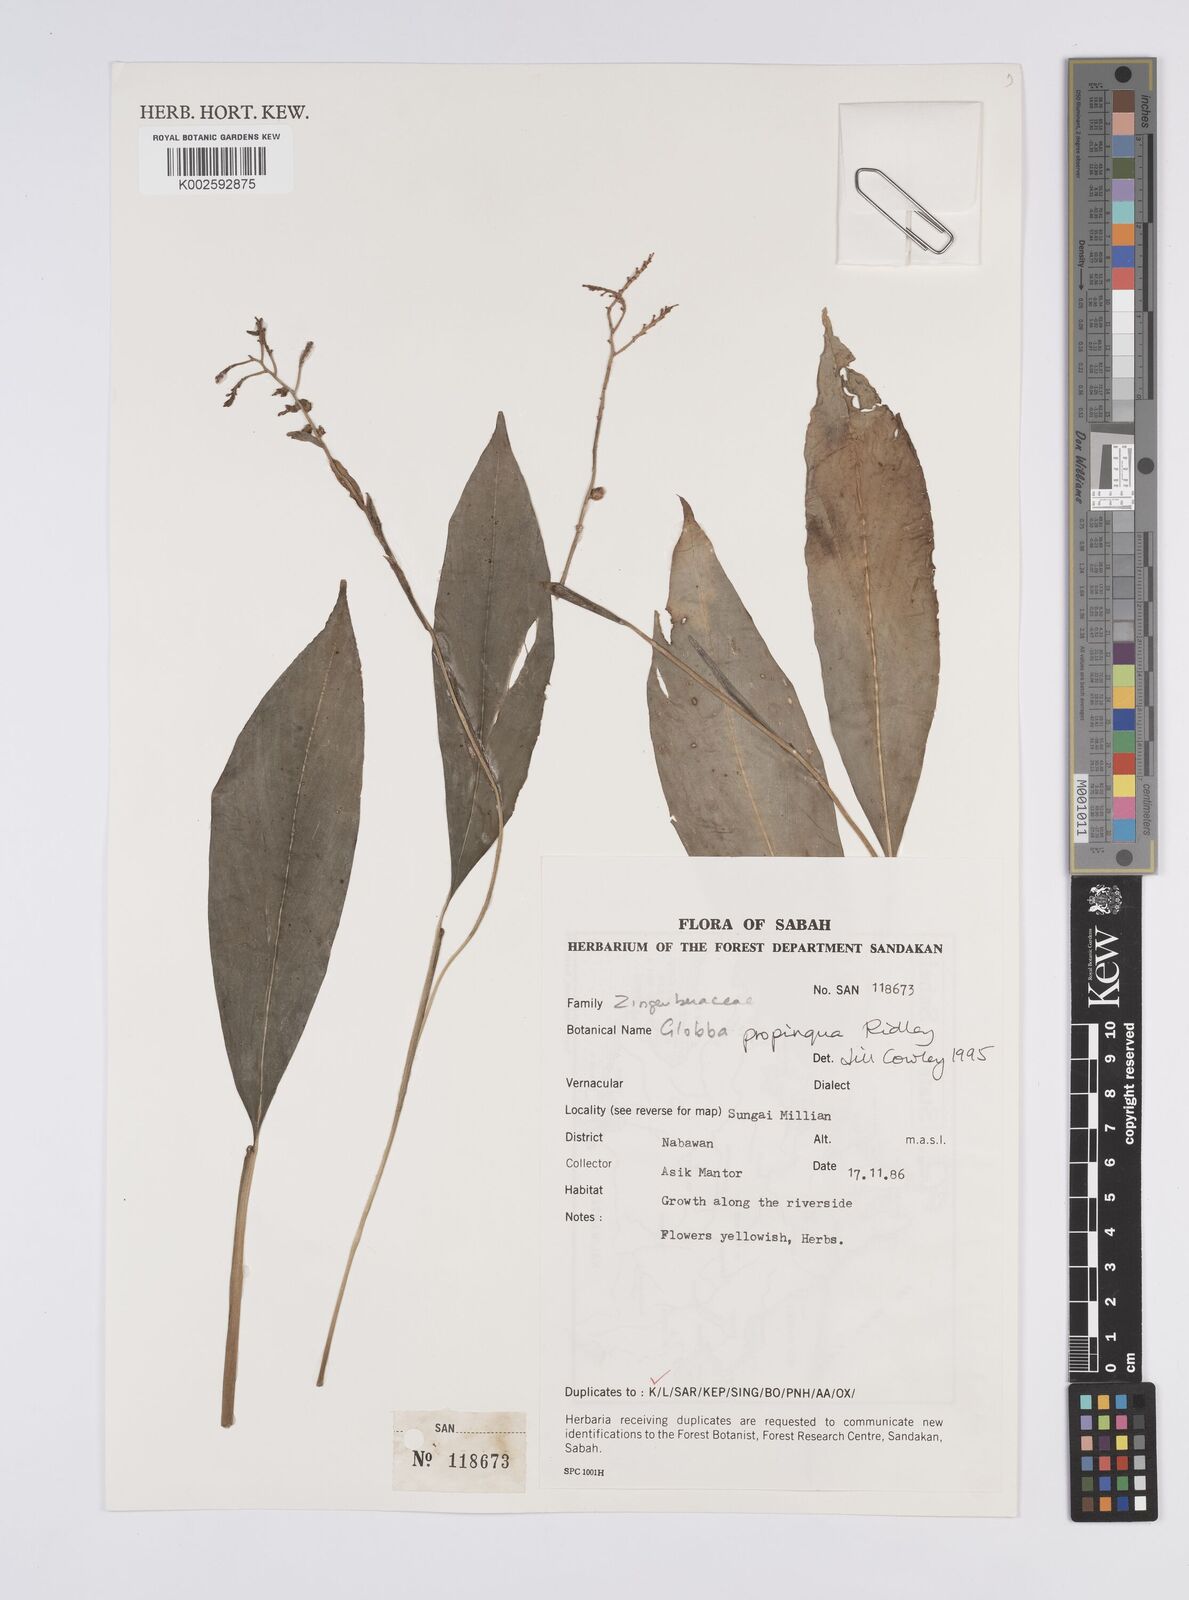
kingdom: Plantae
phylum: Tracheophyta
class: Liliopsida
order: Zingiberales
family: Zingiberaceae
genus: Globba
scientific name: Globba propinqua
